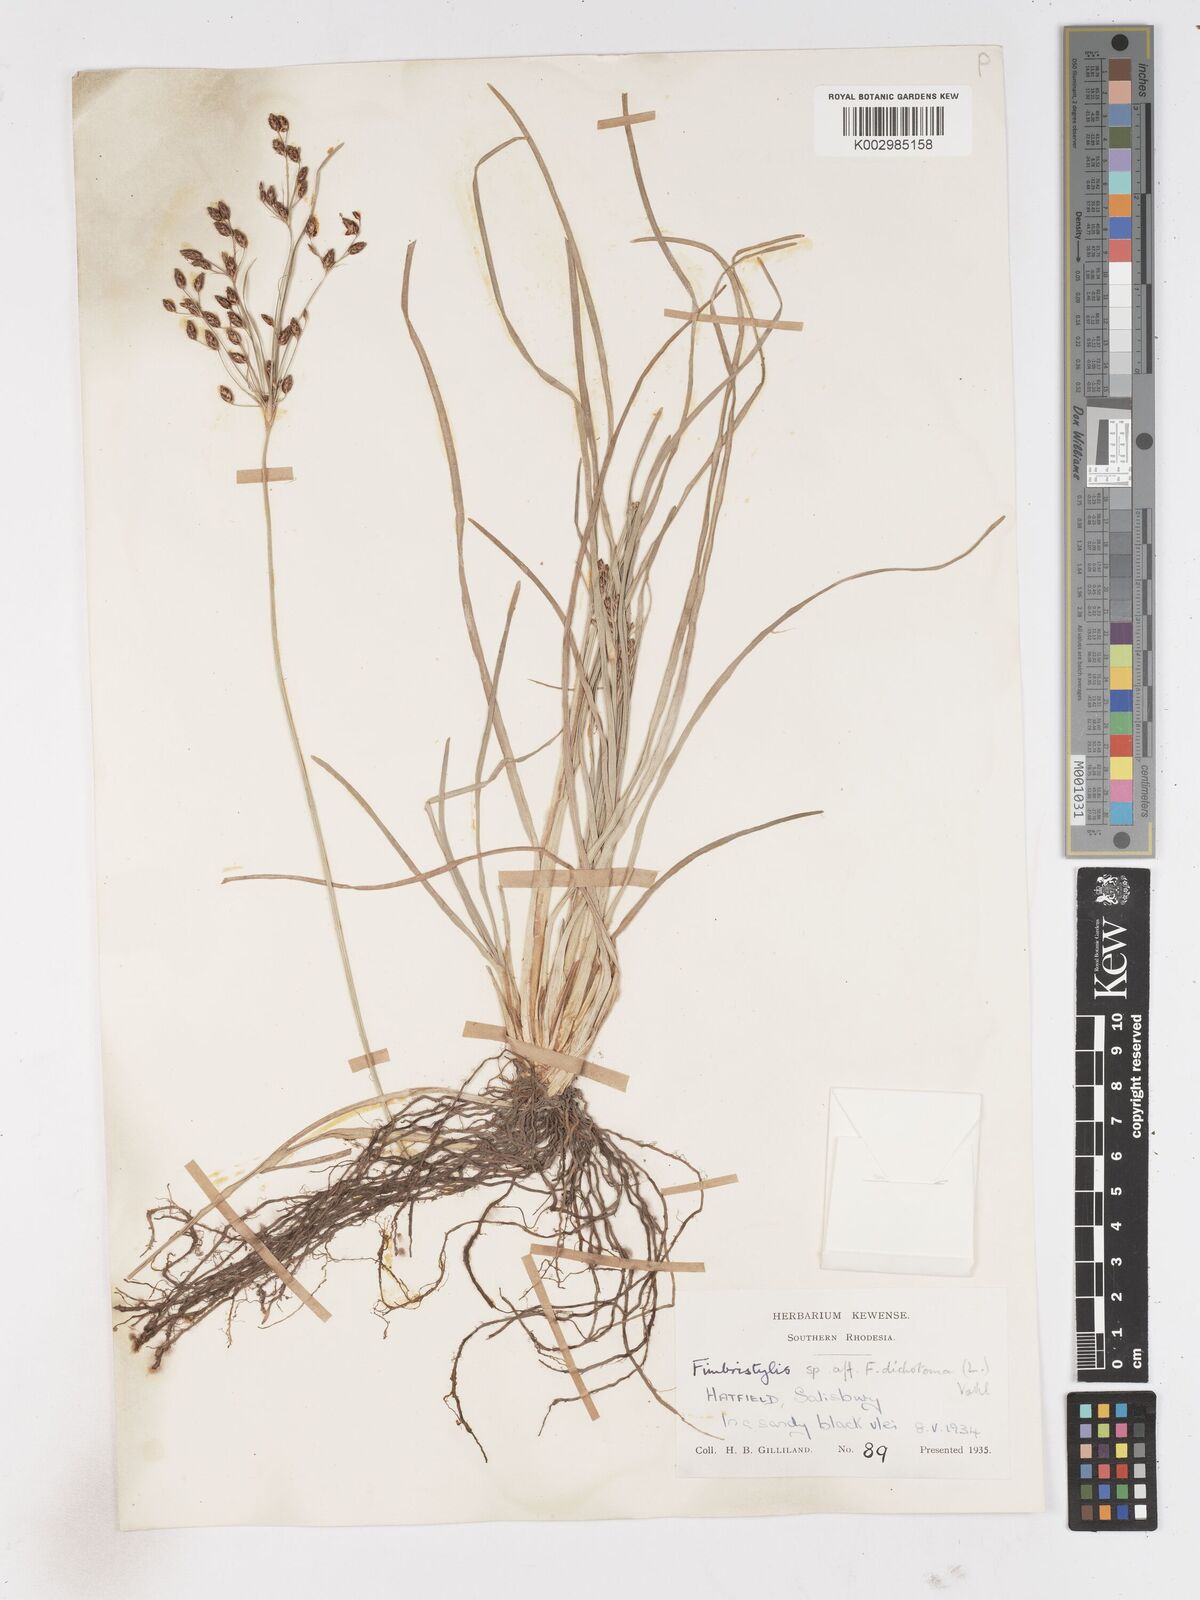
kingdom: Plantae
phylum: Tracheophyta
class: Liliopsida
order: Poales
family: Cyperaceae
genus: Fimbristylis
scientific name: Fimbristylis dichotoma
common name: Forked fimbry
